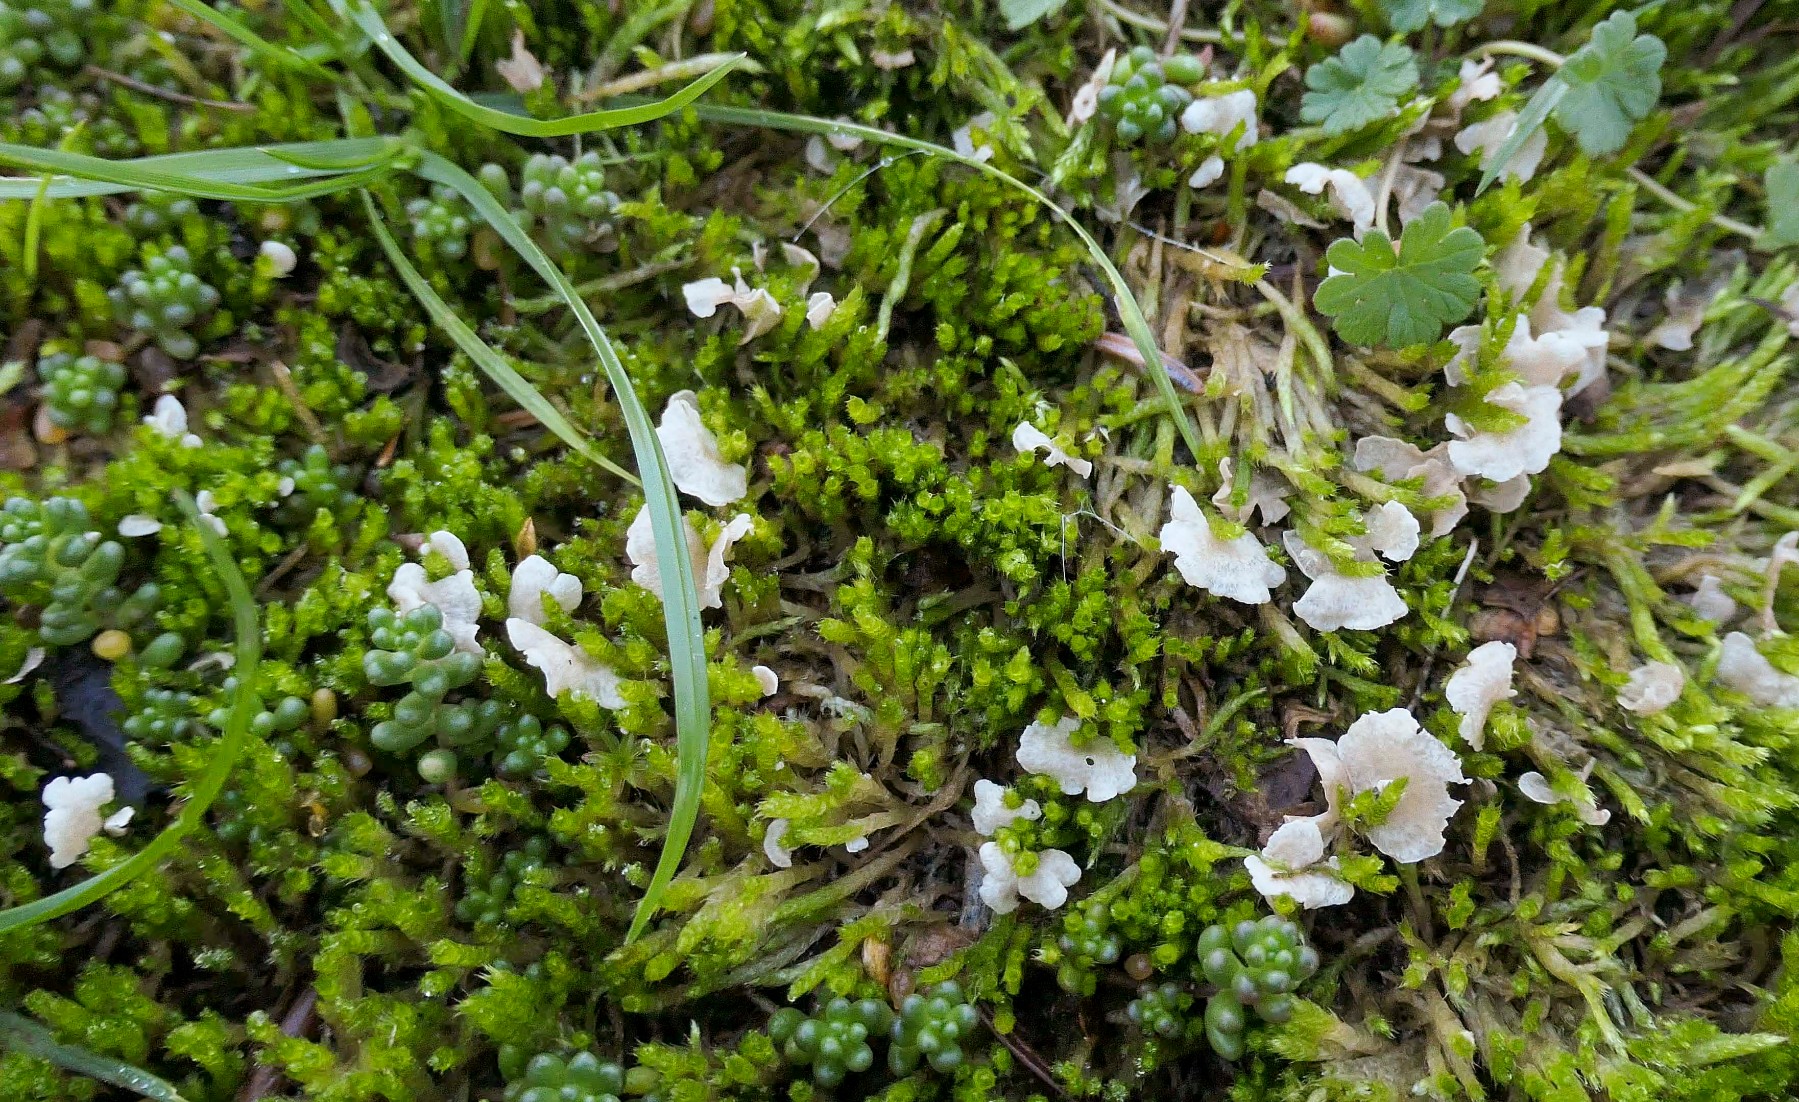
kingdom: Fungi
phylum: Basidiomycota
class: Agaricomycetes
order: Agaricales
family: Hygrophoraceae
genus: Arrhenia
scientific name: Arrhenia retiruga
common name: lille fontænehat
